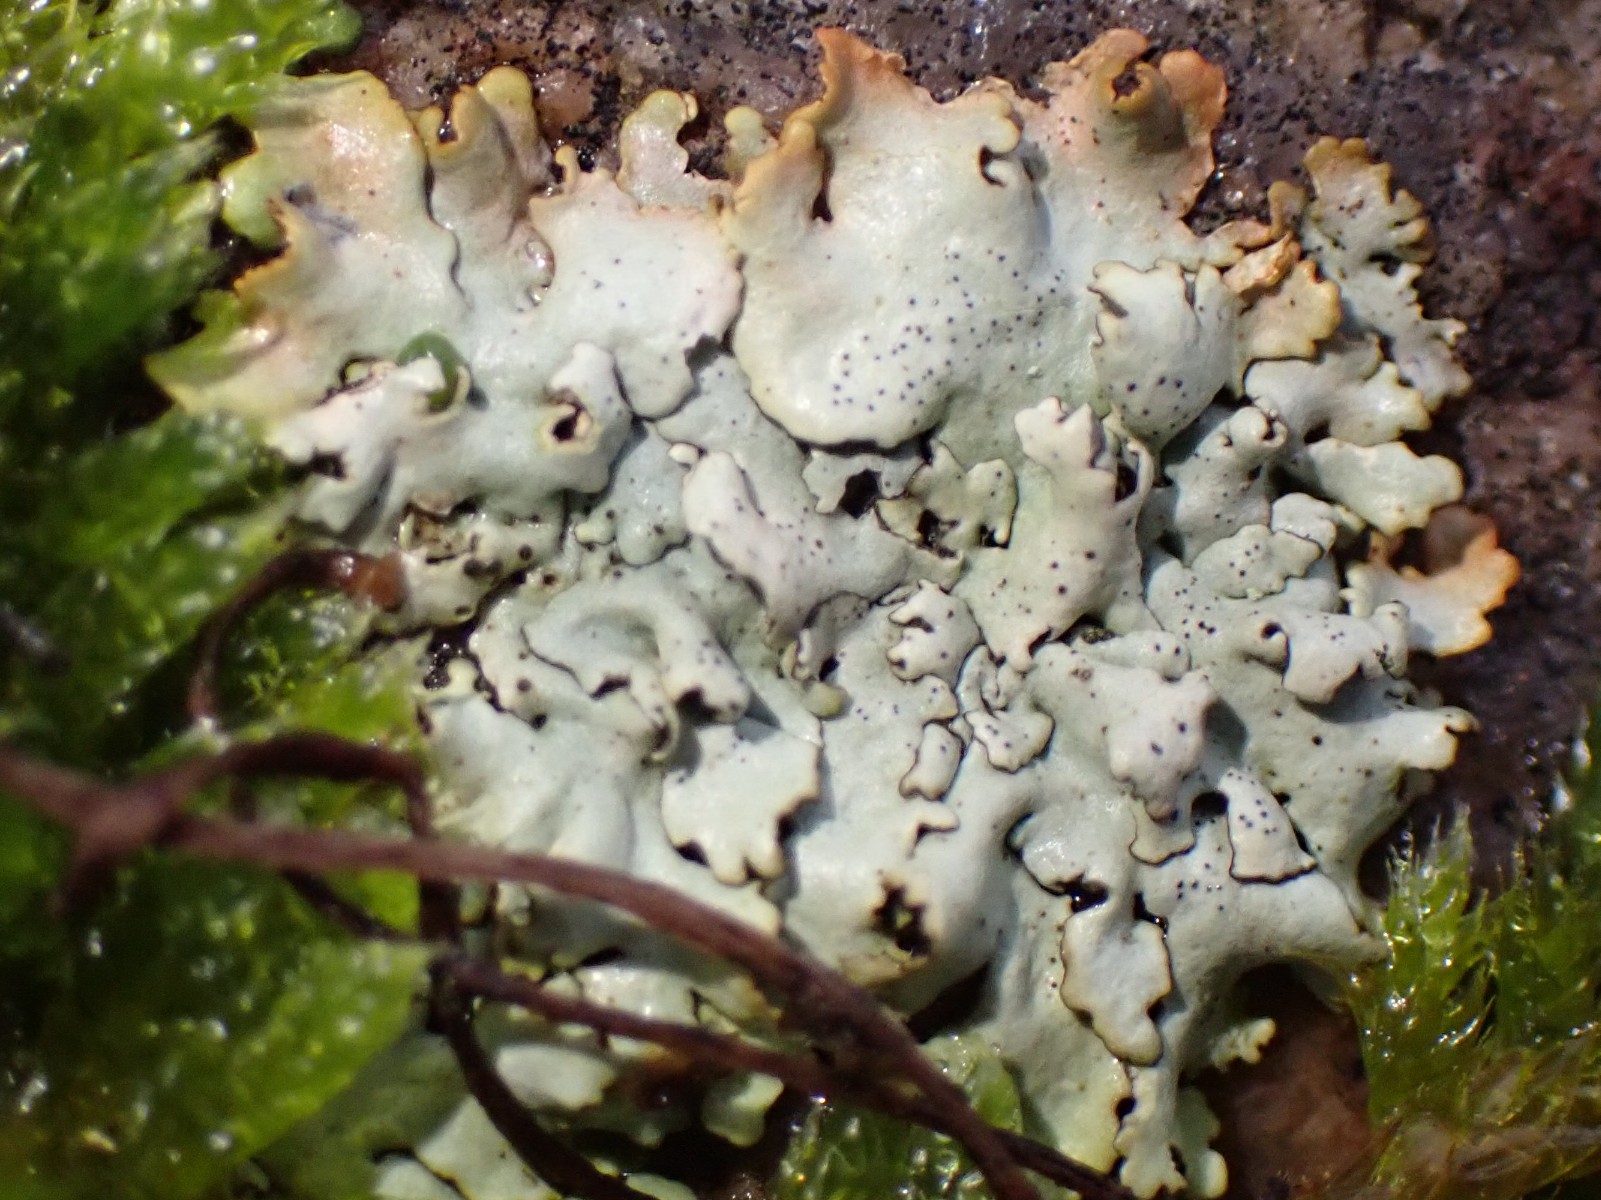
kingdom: Fungi
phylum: Ascomycota
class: Lecanoromycetes
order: Lecanorales
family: Parmeliaceae
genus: Hypogymnia
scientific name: Hypogymnia physodes
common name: almindelig kvistlav
